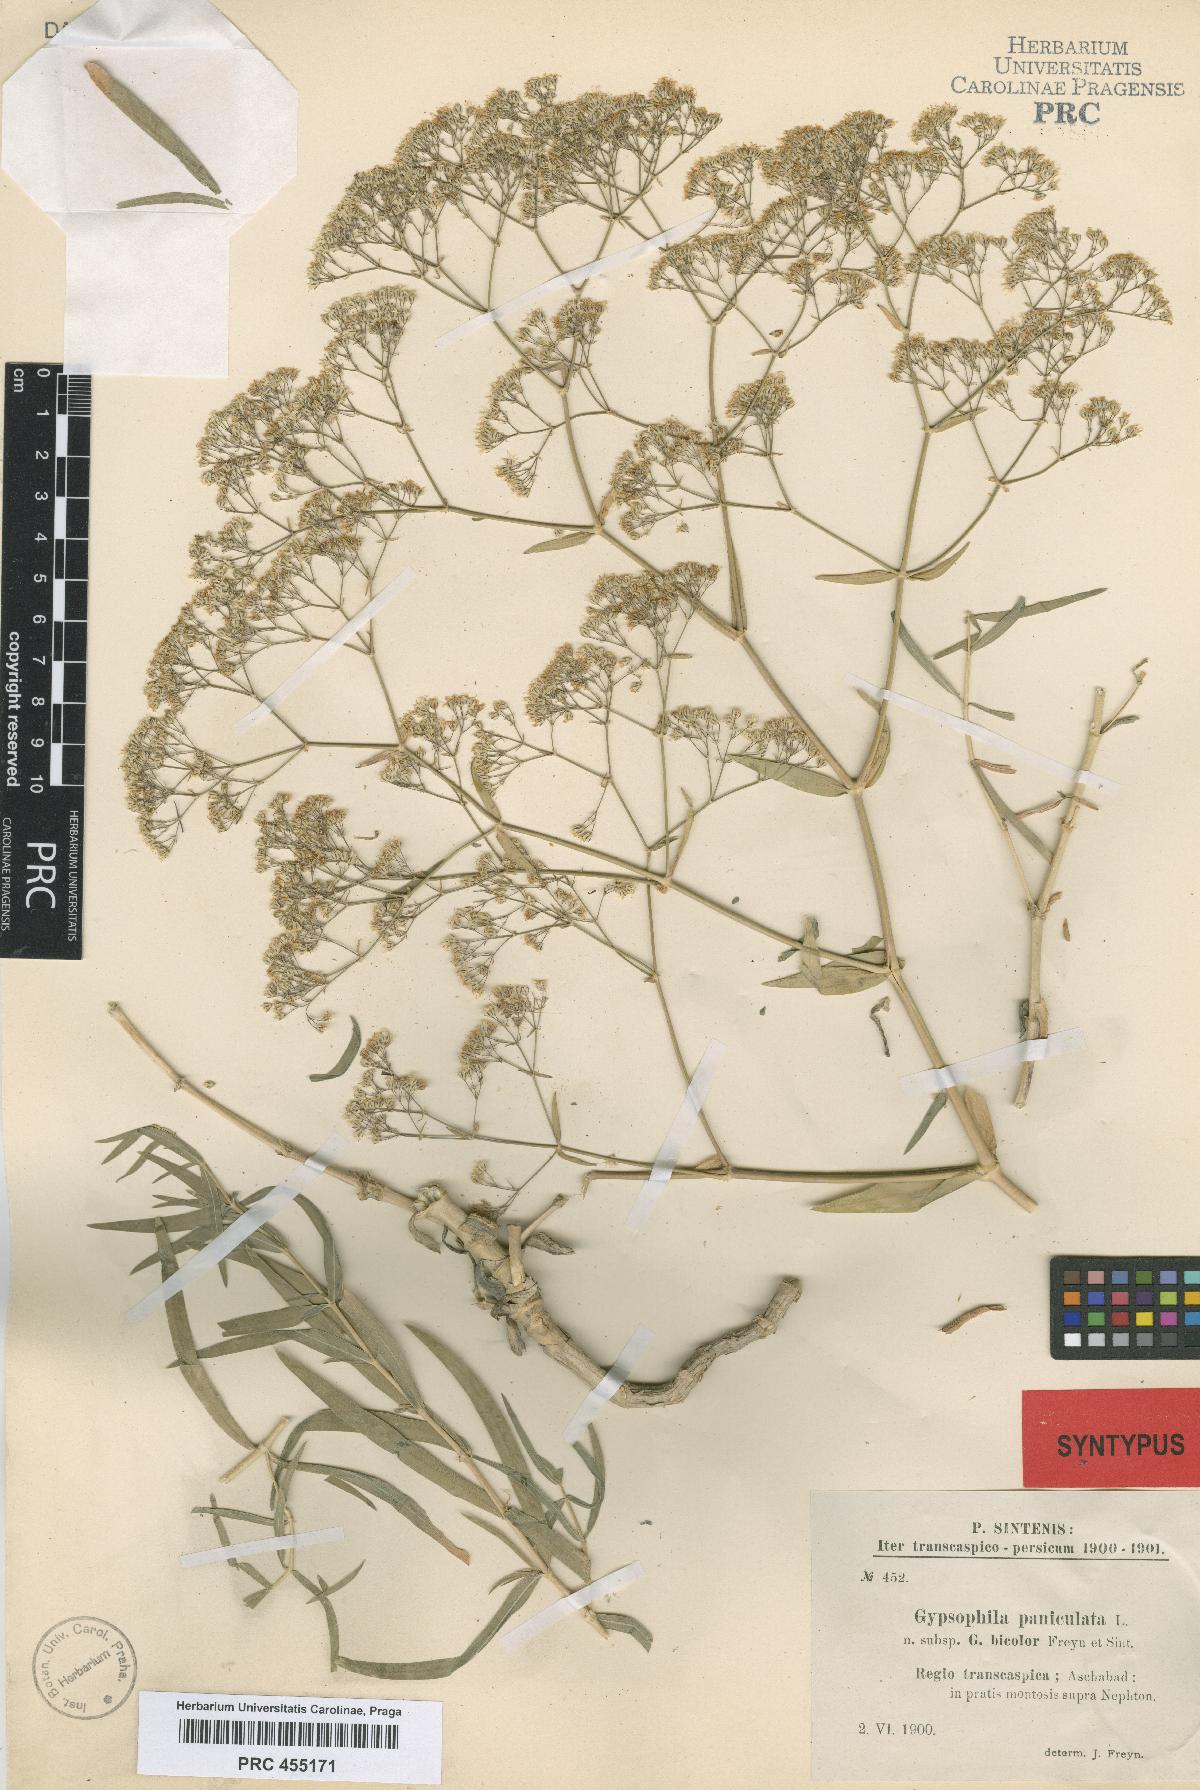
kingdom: Plantae
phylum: Tracheophyta
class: Magnoliopsida
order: Caryophyllales
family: Caryophyllaceae
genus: Gypsophila
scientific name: Gypsophila bicolor
